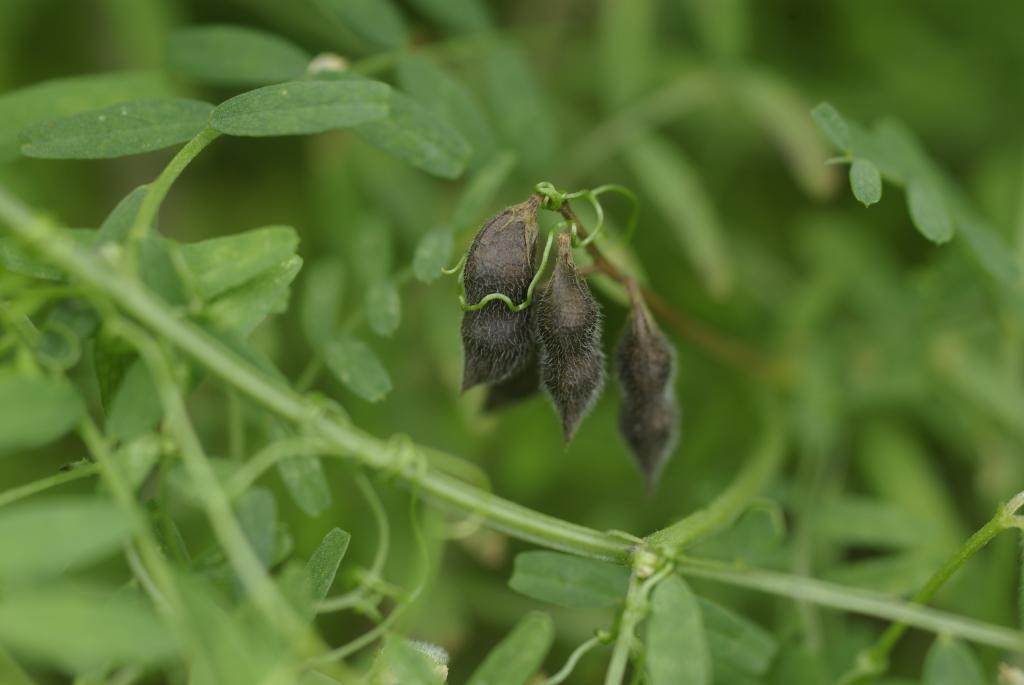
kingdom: Plantae
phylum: Tracheophyta
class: Magnoliopsida
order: Fabales
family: Fabaceae
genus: Vicia
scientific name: Vicia hirsuta
